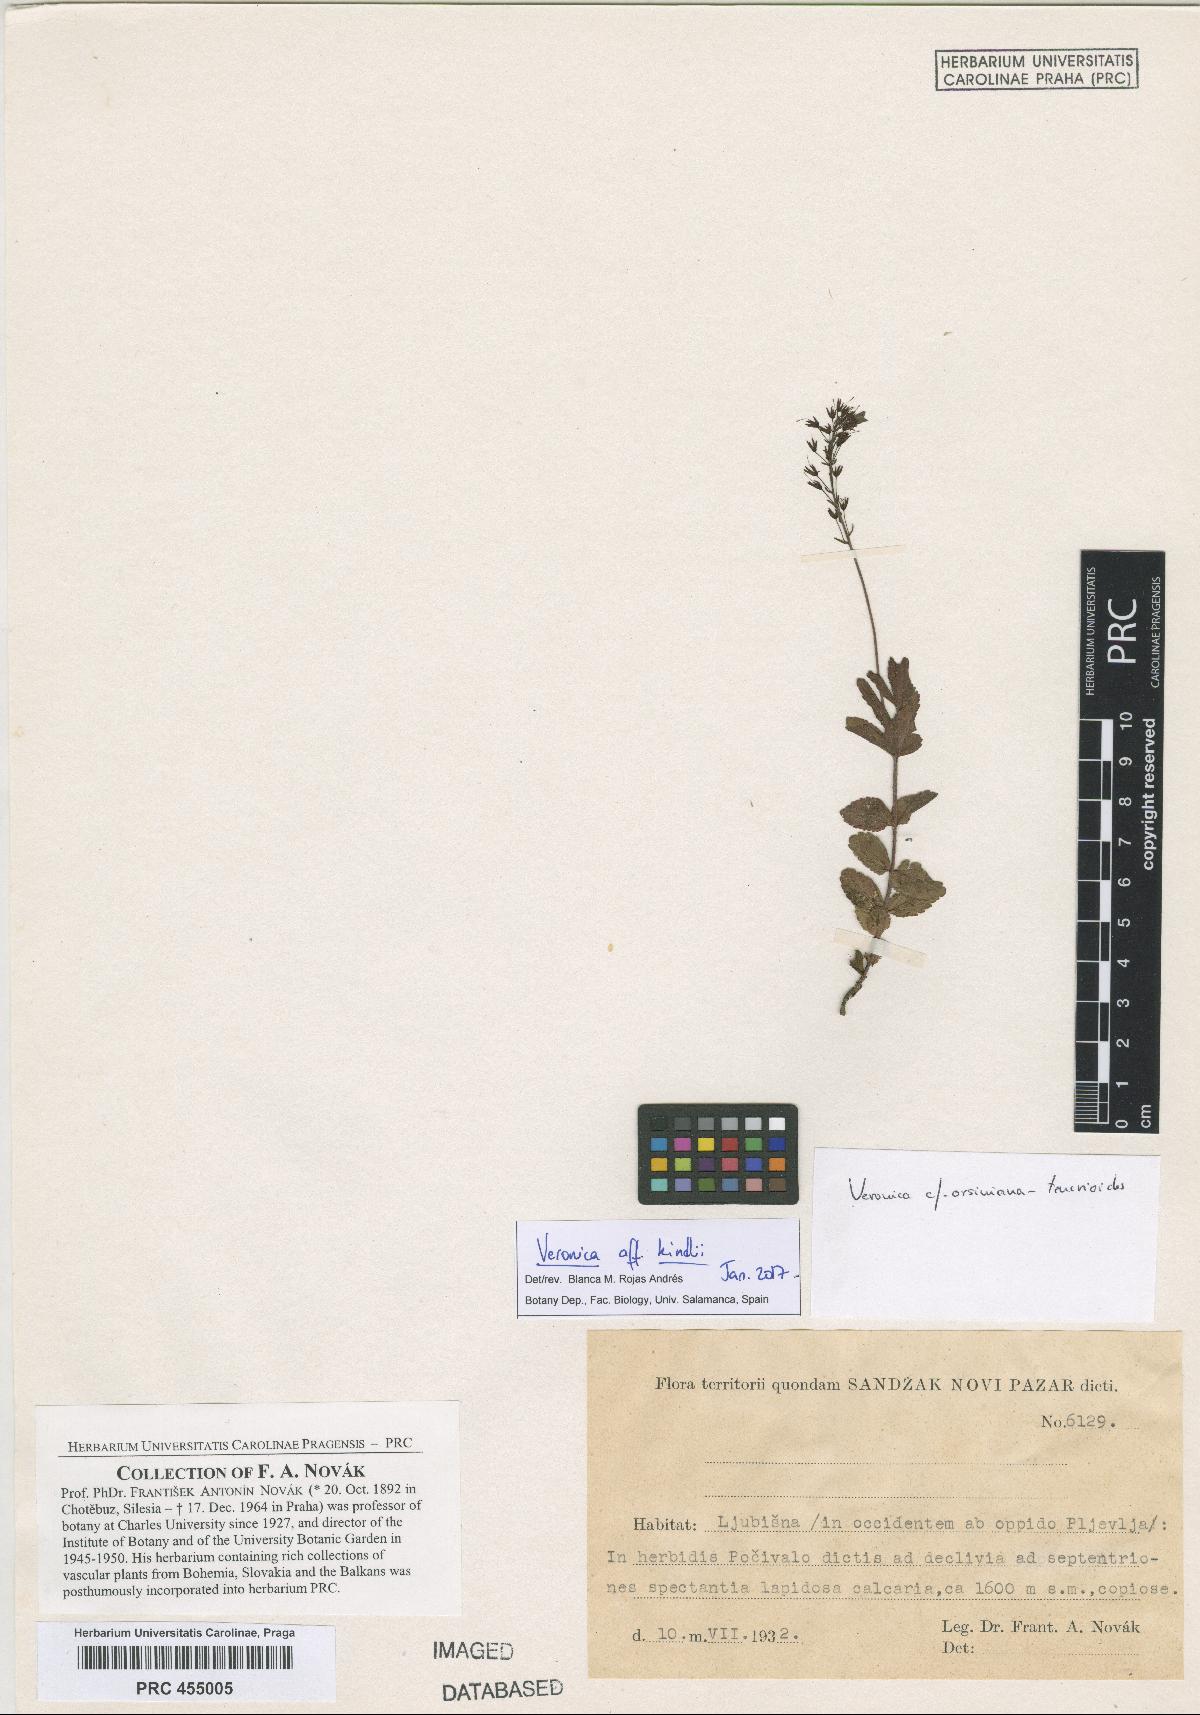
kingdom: Plantae
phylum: Tracheophyta
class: Magnoliopsida
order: Lamiales
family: Plantaginaceae
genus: Veronica
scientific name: Veronica orsiniana
